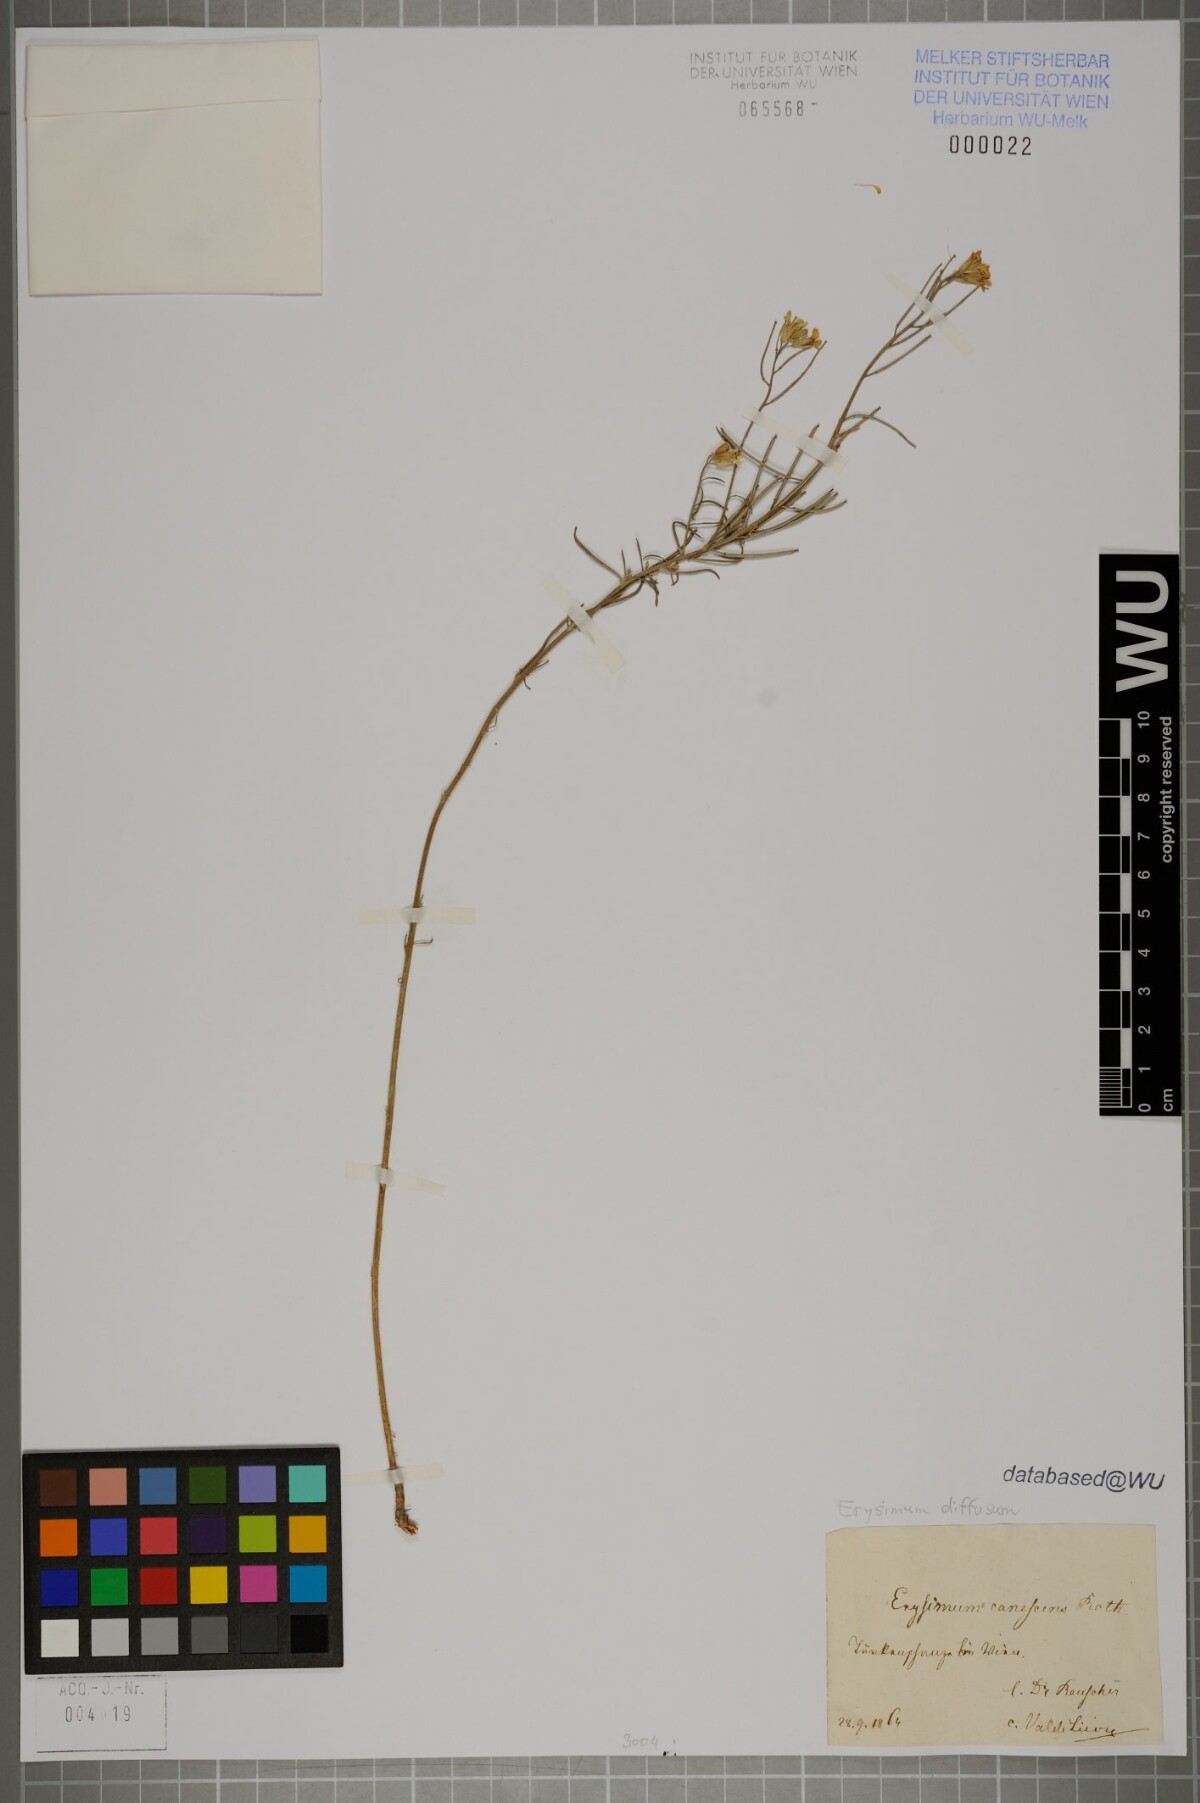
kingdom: Plantae
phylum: Tracheophyta
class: Magnoliopsida
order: Brassicales
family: Brassicaceae
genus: Erysimum
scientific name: Erysimum diffusum
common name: Diffuse wallflower
